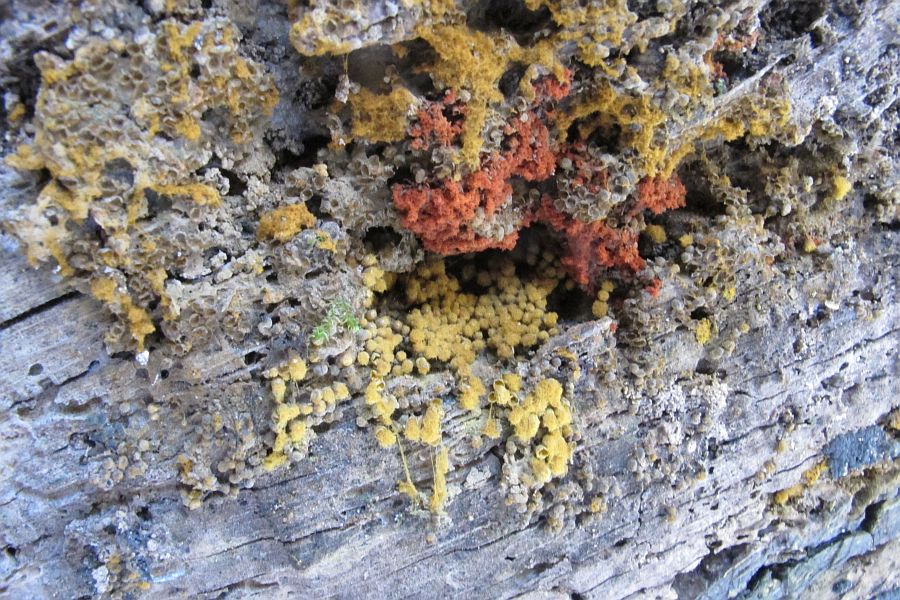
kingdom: Protozoa
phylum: Mycetozoa
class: Myxomycetes
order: Trichiales
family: Trichiaceae
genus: Metatrichia
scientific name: Metatrichia vesparia
